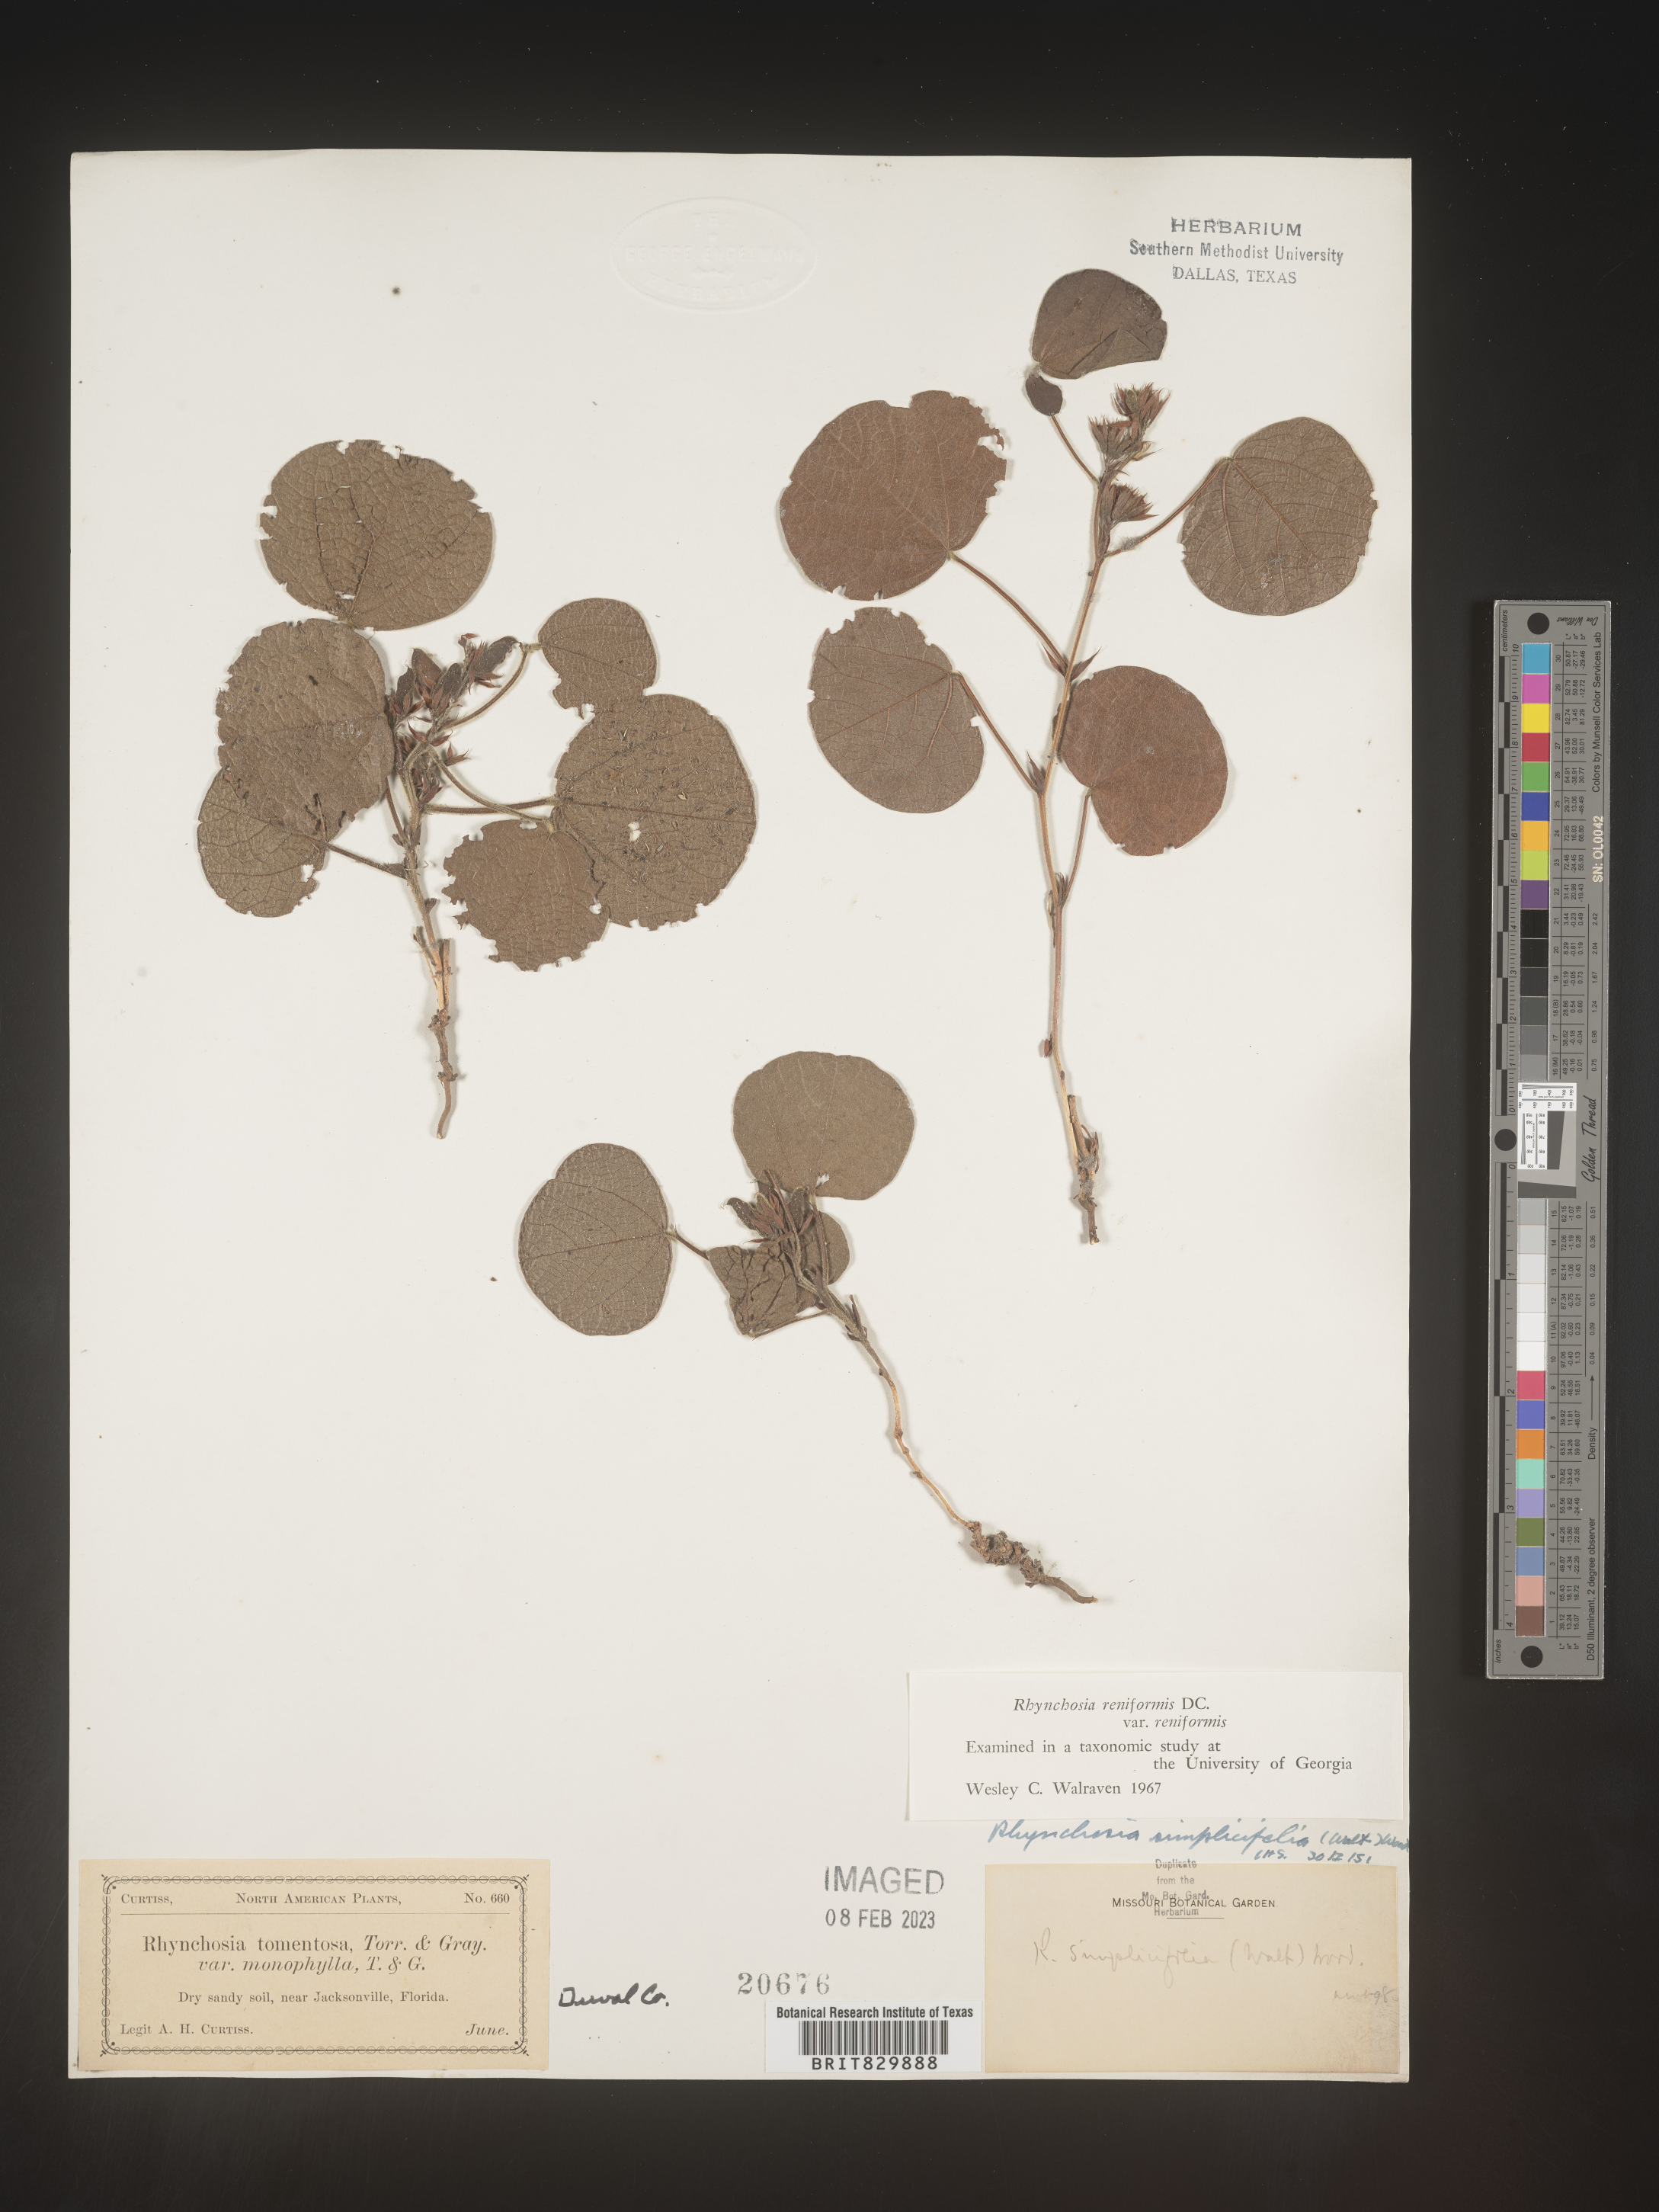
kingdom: Plantae
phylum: Tracheophyta
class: Magnoliopsida
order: Fabales
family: Fabaceae
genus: Rhynchosia
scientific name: Rhynchosia reniformis
